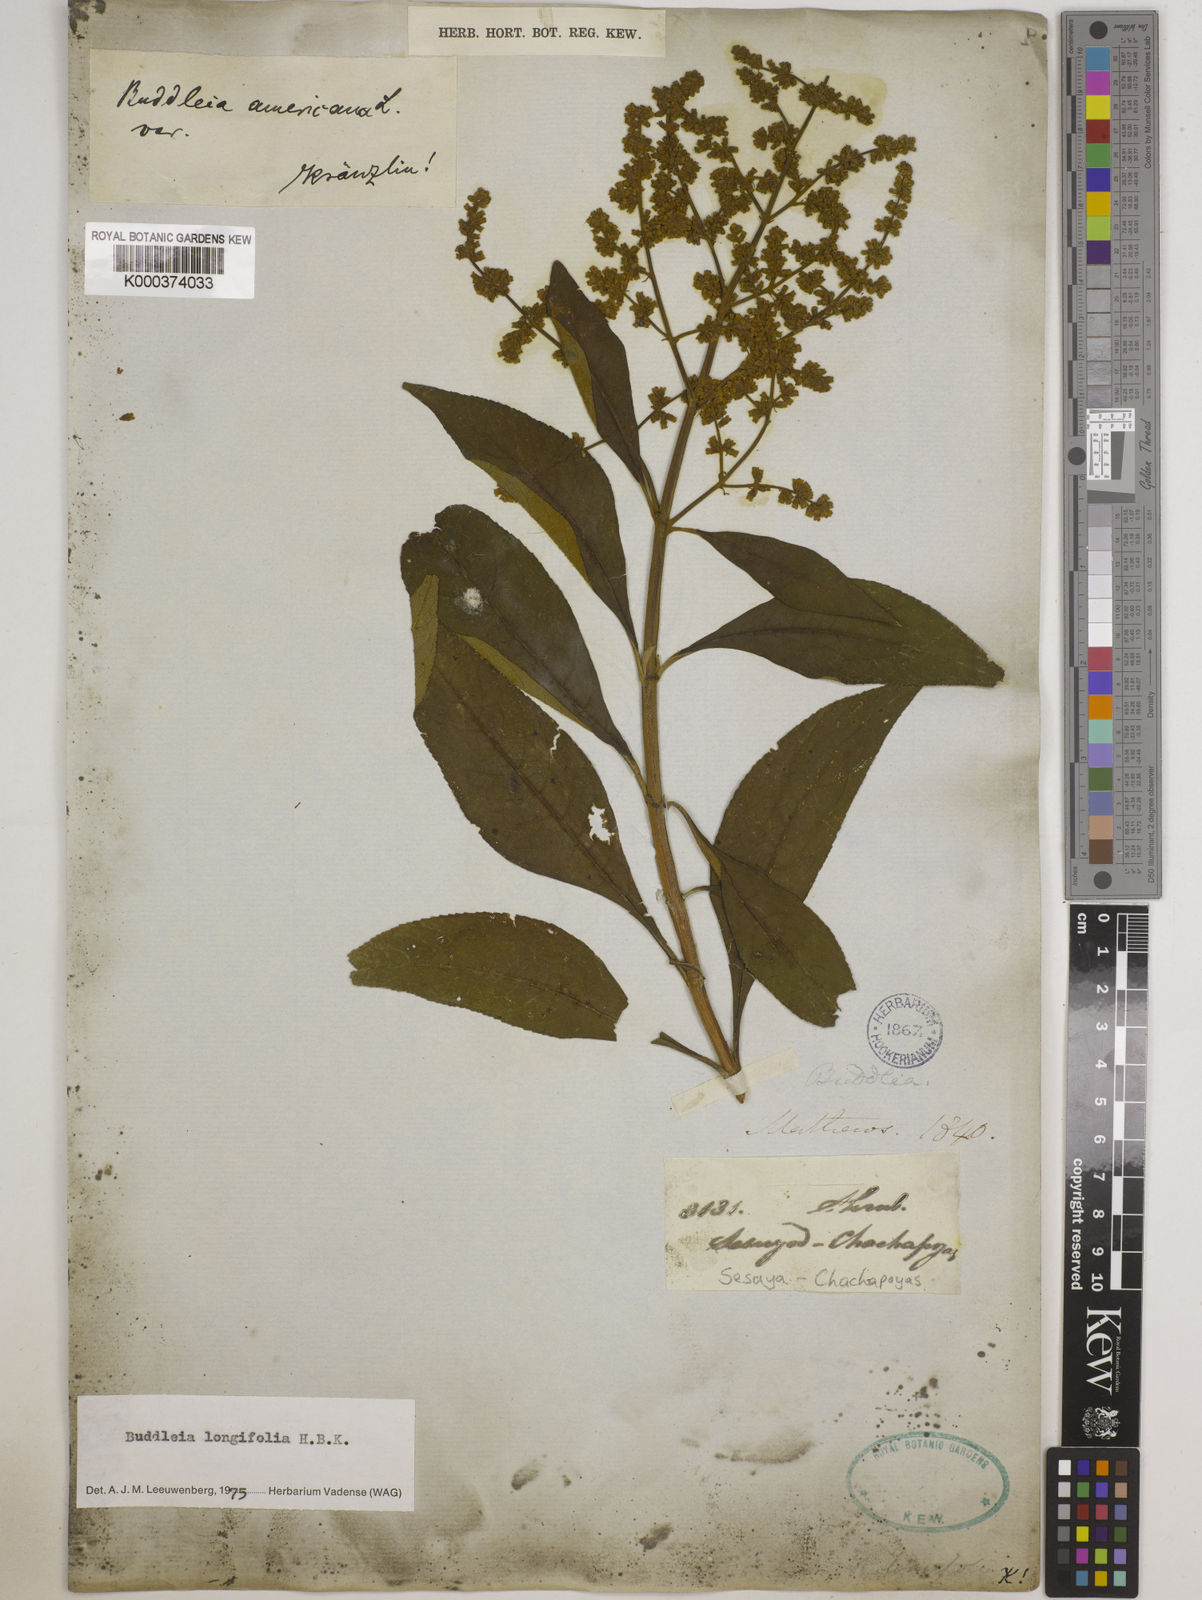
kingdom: Plantae
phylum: Tracheophyta
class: Magnoliopsida
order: Lamiales
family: Scrophulariaceae
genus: Buddleja
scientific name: Buddleja
